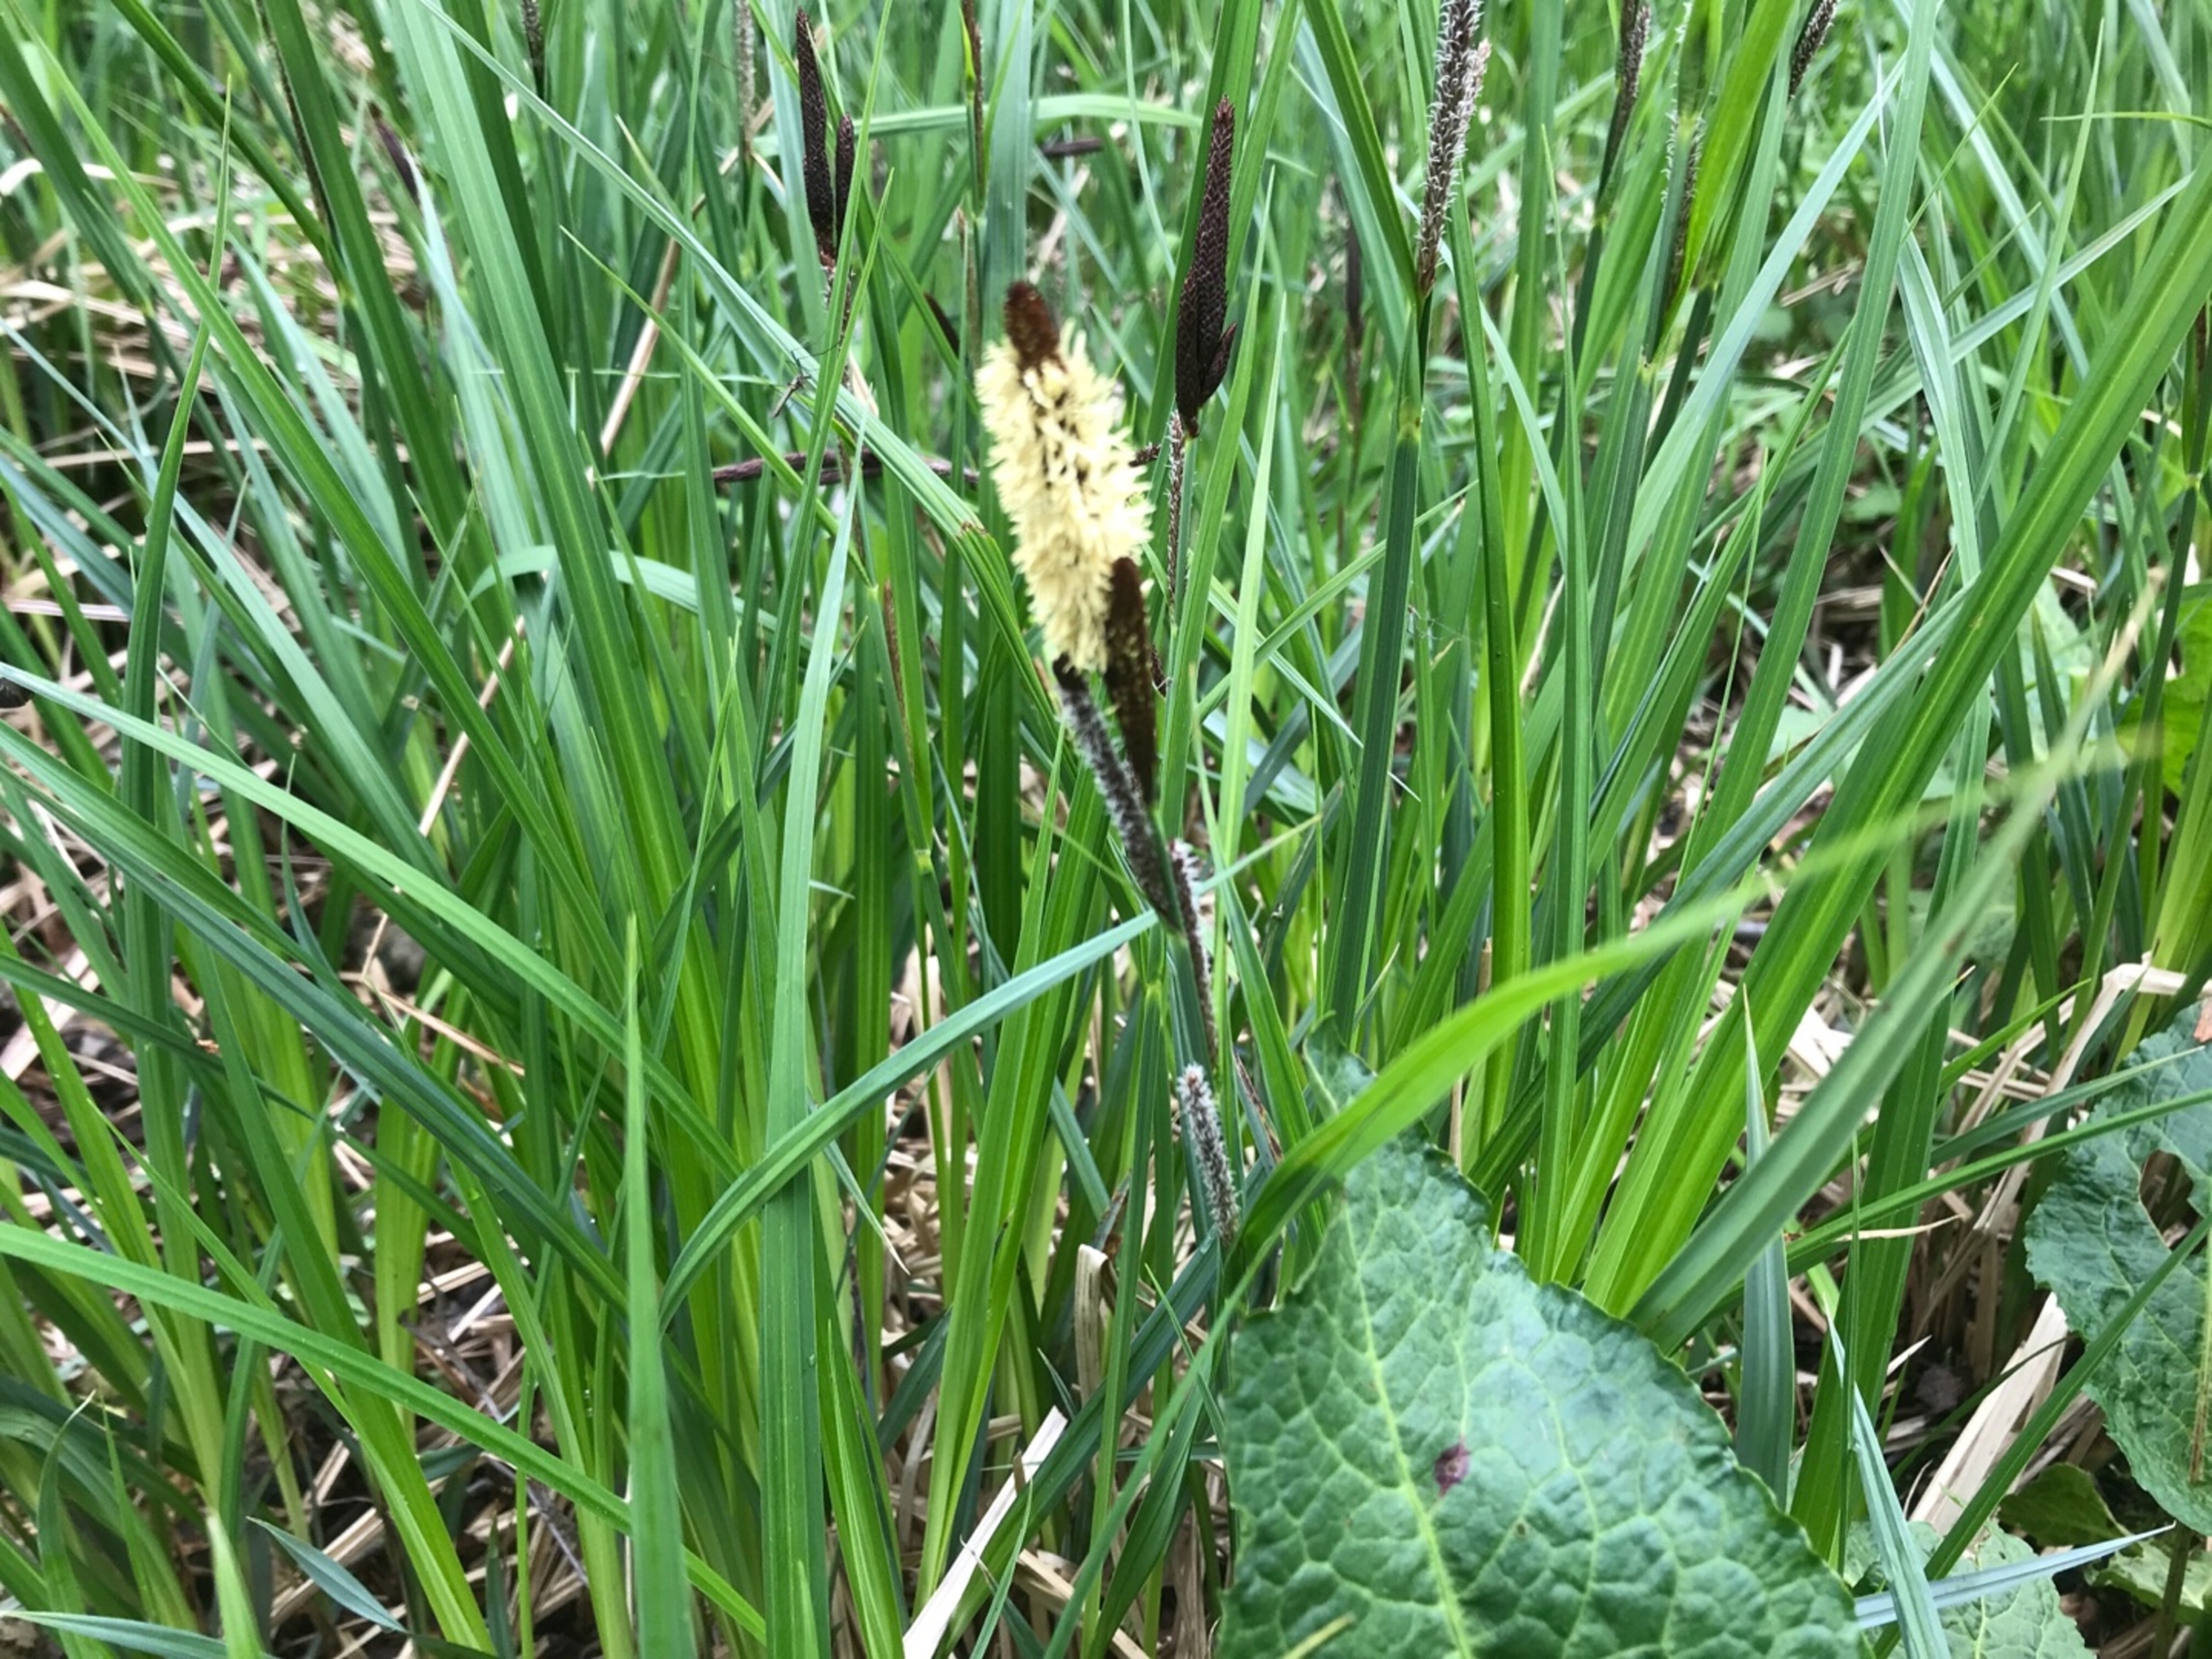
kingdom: Plantae
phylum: Tracheophyta
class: Liliopsida
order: Poales
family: Cyperaceae
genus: Carex
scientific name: Carex
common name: Starslægten
